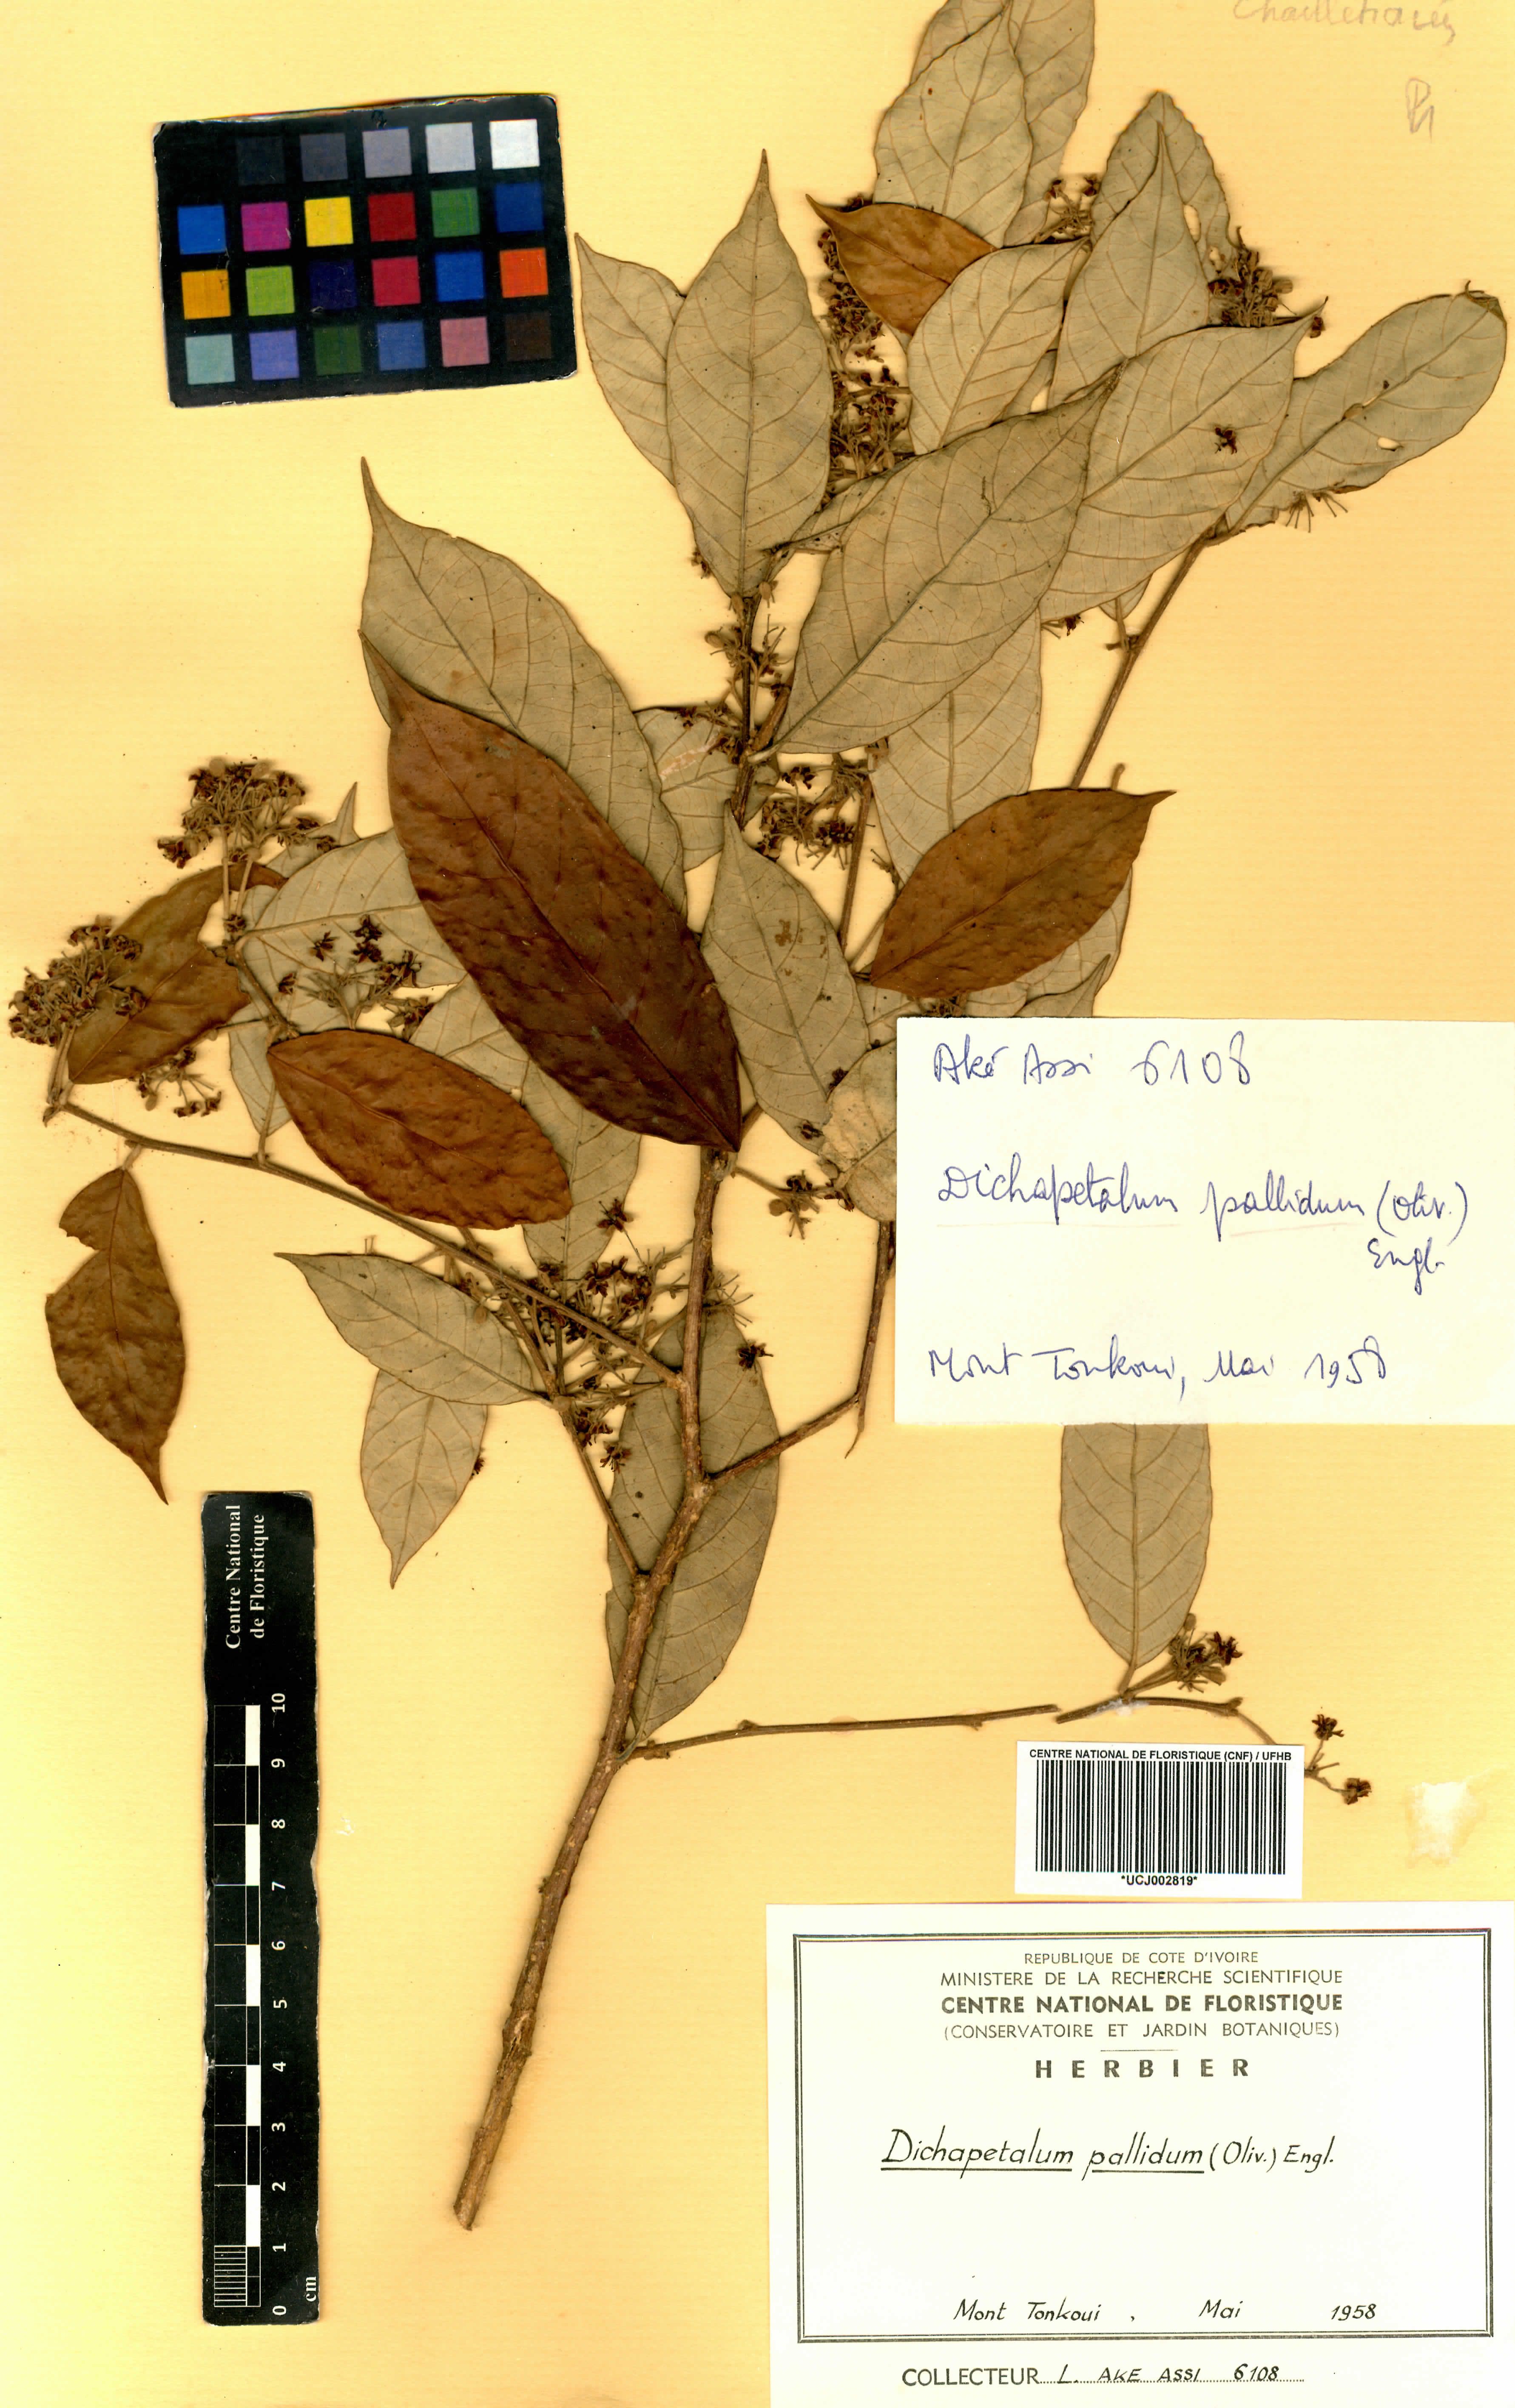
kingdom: Plantae
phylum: Tracheophyta
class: Magnoliopsida
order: Malpighiales
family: Dichapetalaceae
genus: Dichapetalum
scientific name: Dichapetalum pallidum
